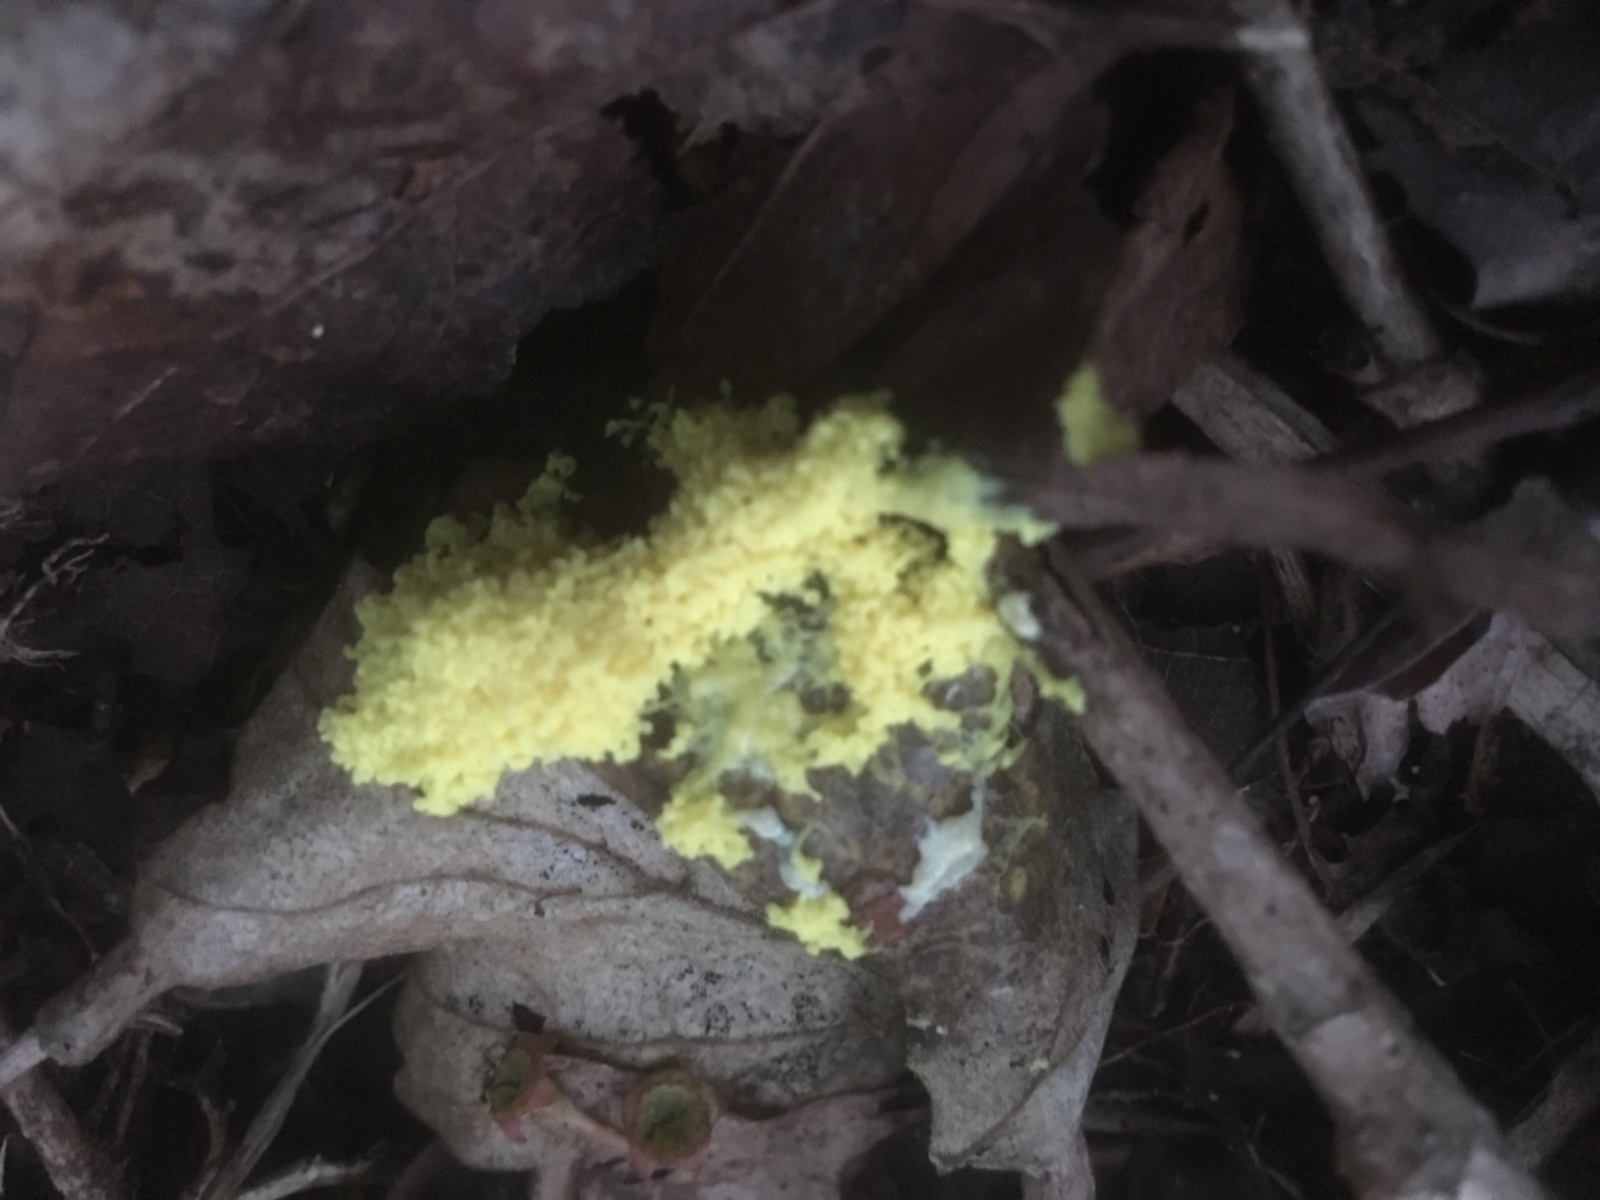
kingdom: Protozoa
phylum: Mycetozoa
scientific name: Mycetozoa
